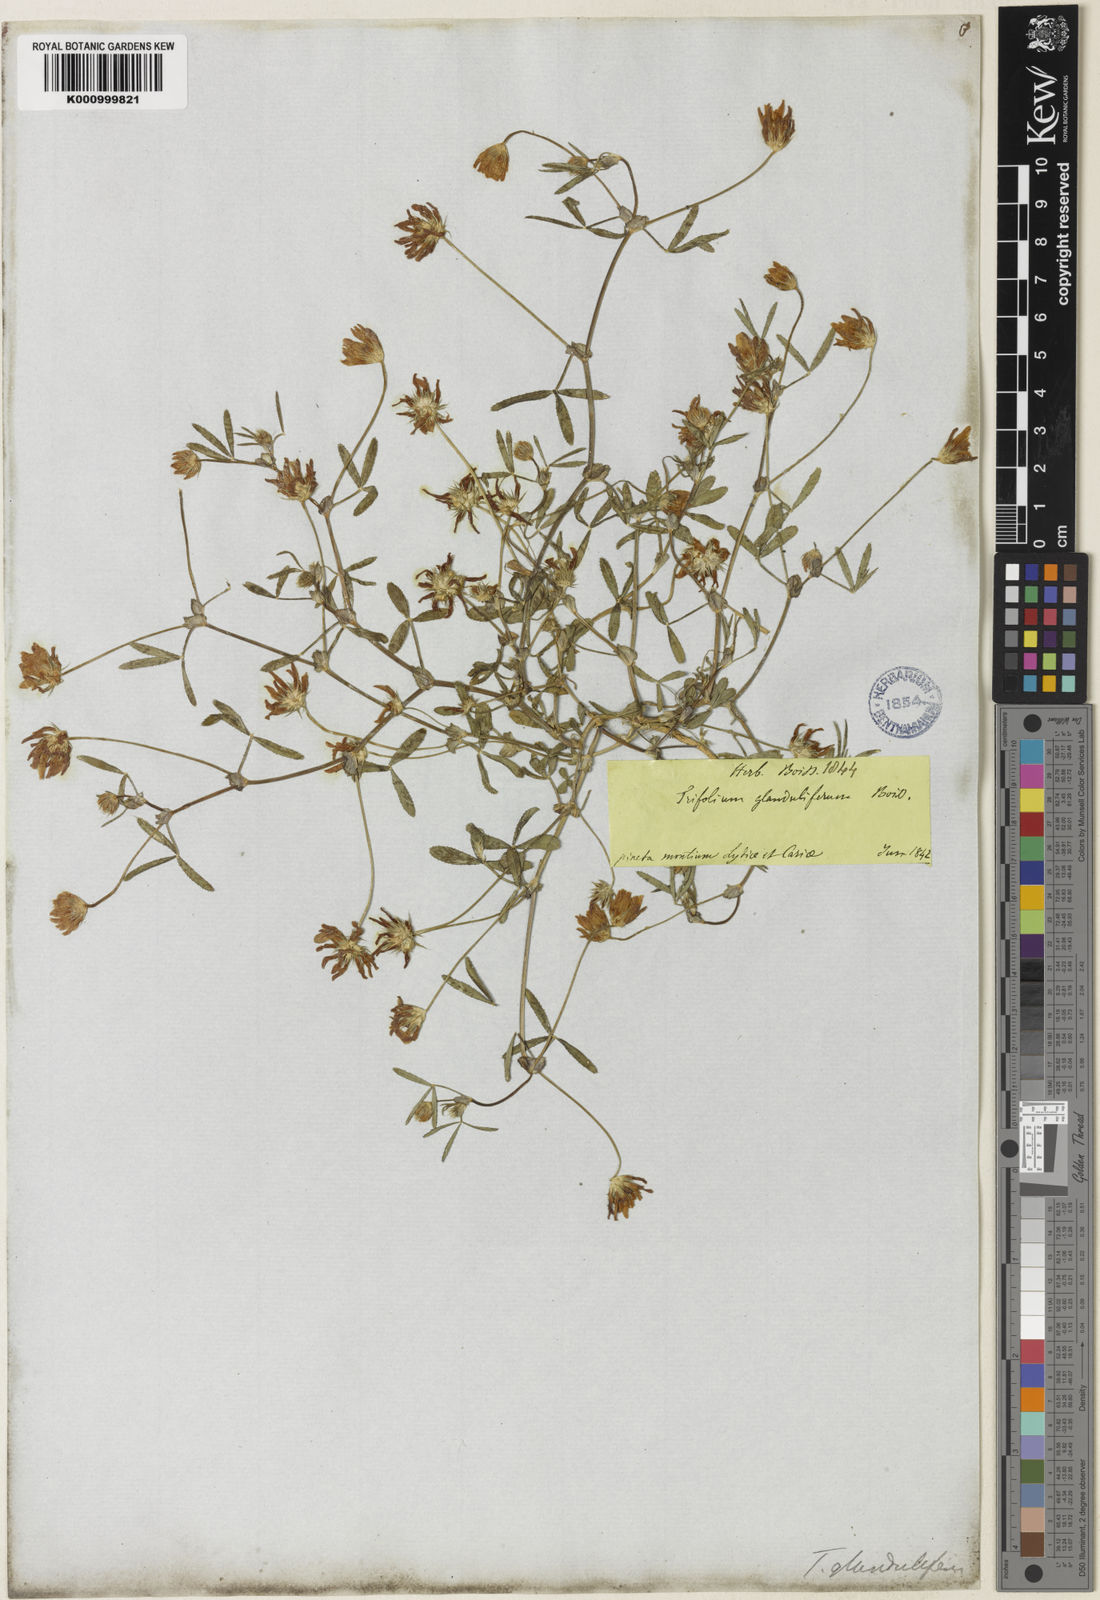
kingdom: Plantae
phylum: Tracheophyta
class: Magnoliopsida
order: Fabales
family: Fabaceae
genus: Trifolium
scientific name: Trifolium glanduliferum
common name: Glandular clover
